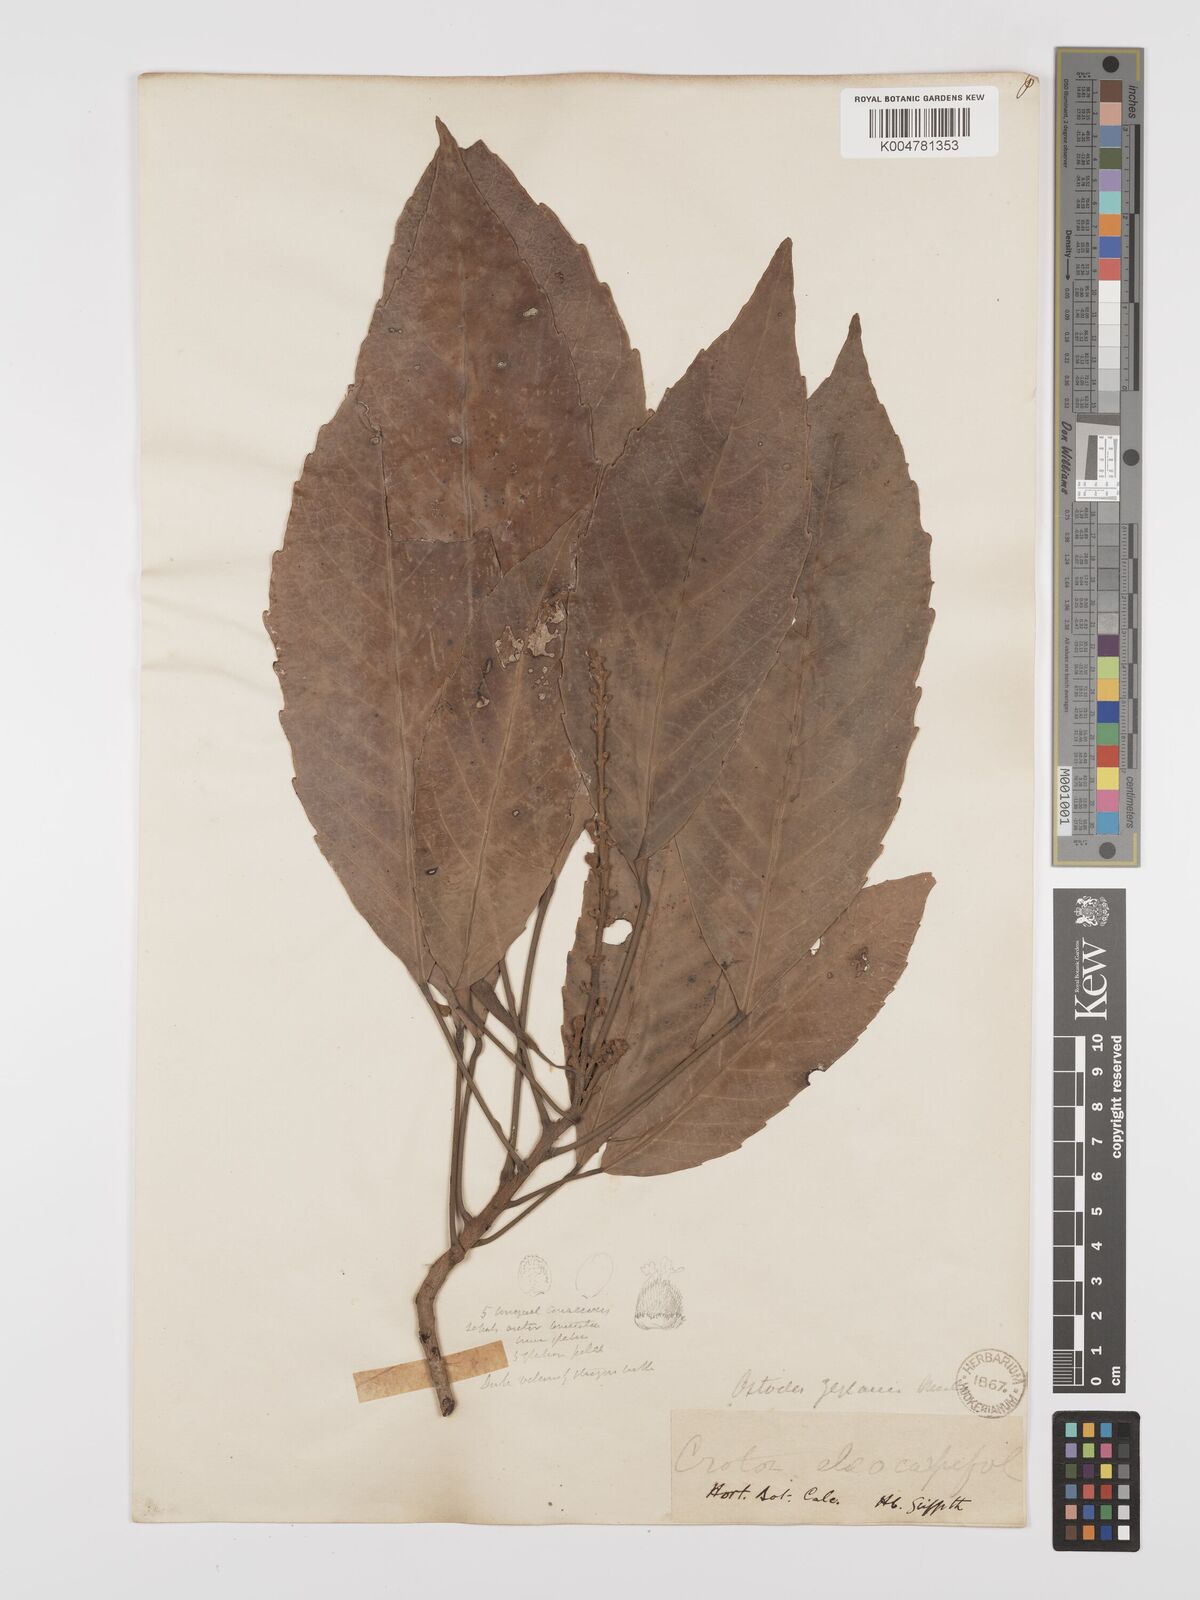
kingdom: Plantae
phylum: Tracheophyta
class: Magnoliopsida
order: Malpighiales
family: Euphorbiaceae
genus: Paracroton
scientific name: Paracroton zeylanicus
